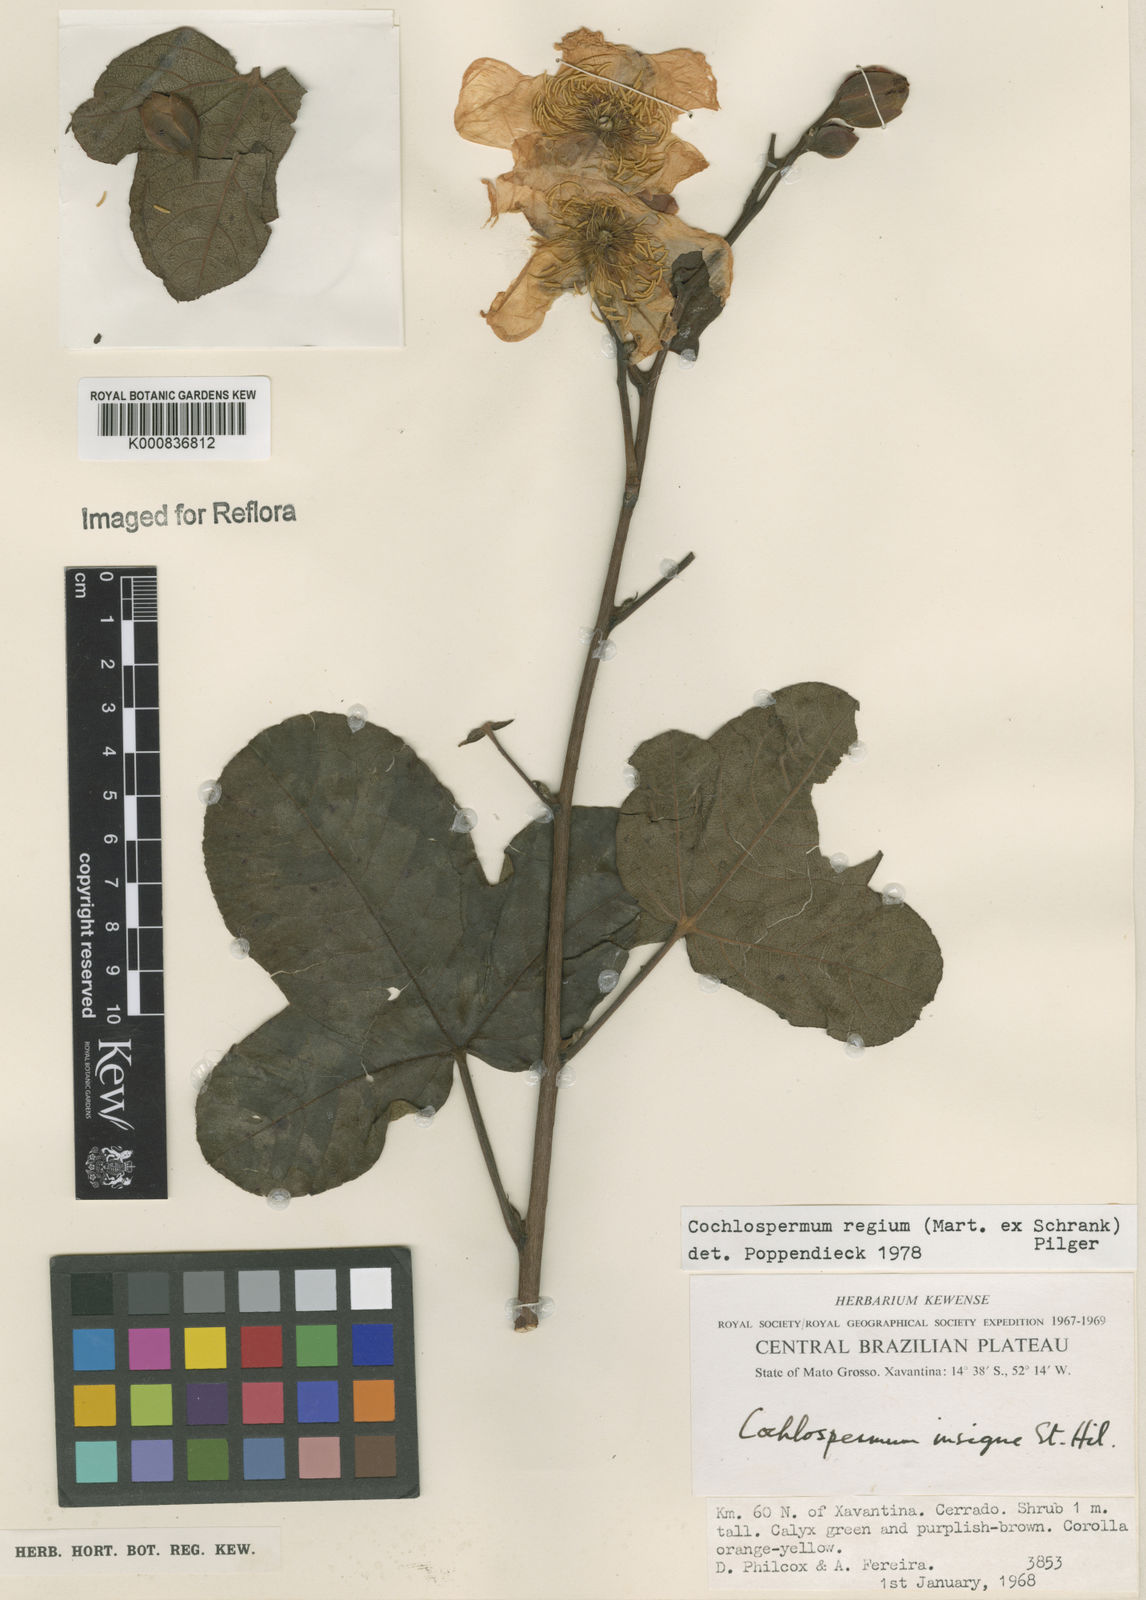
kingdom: Plantae
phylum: Tracheophyta
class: Magnoliopsida
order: Malvales
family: Cochlospermaceae
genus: Cochlospermum
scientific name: Cochlospermum regium
